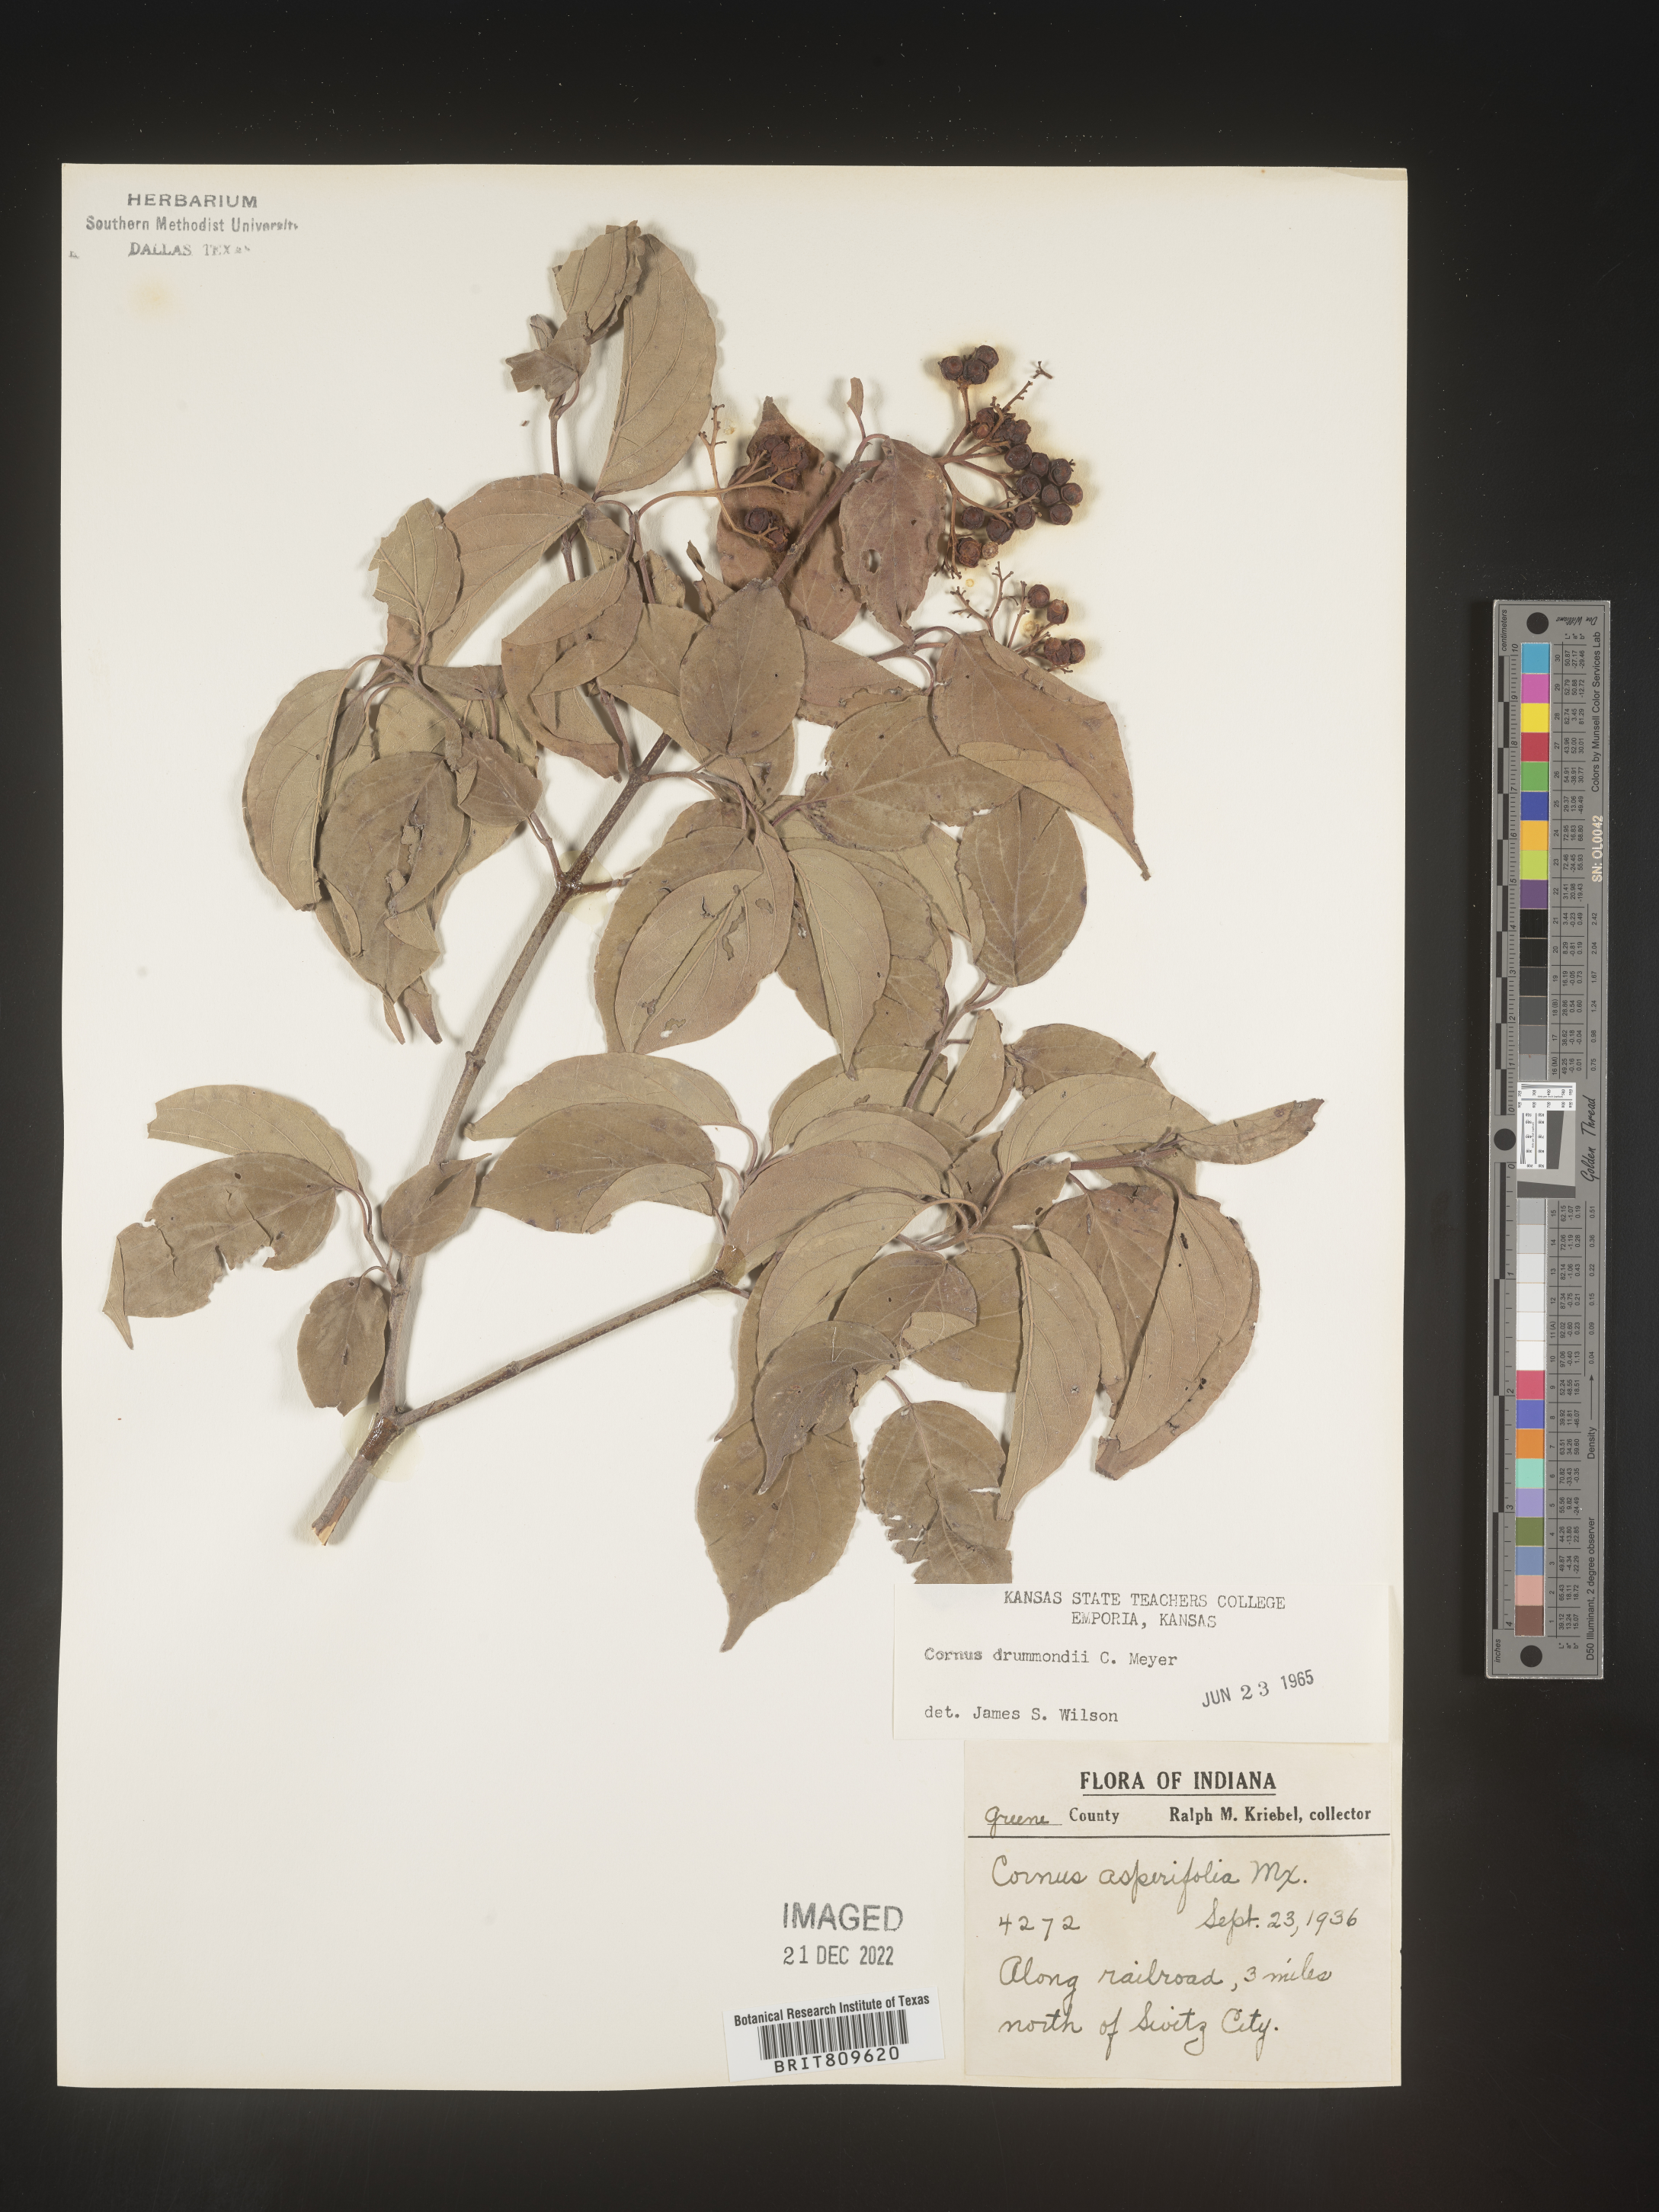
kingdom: Plantae
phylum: Tracheophyta
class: Magnoliopsida
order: Cornales
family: Cornaceae
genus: Cornus
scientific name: Cornus drummondii
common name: Rough-leaf dogwood
